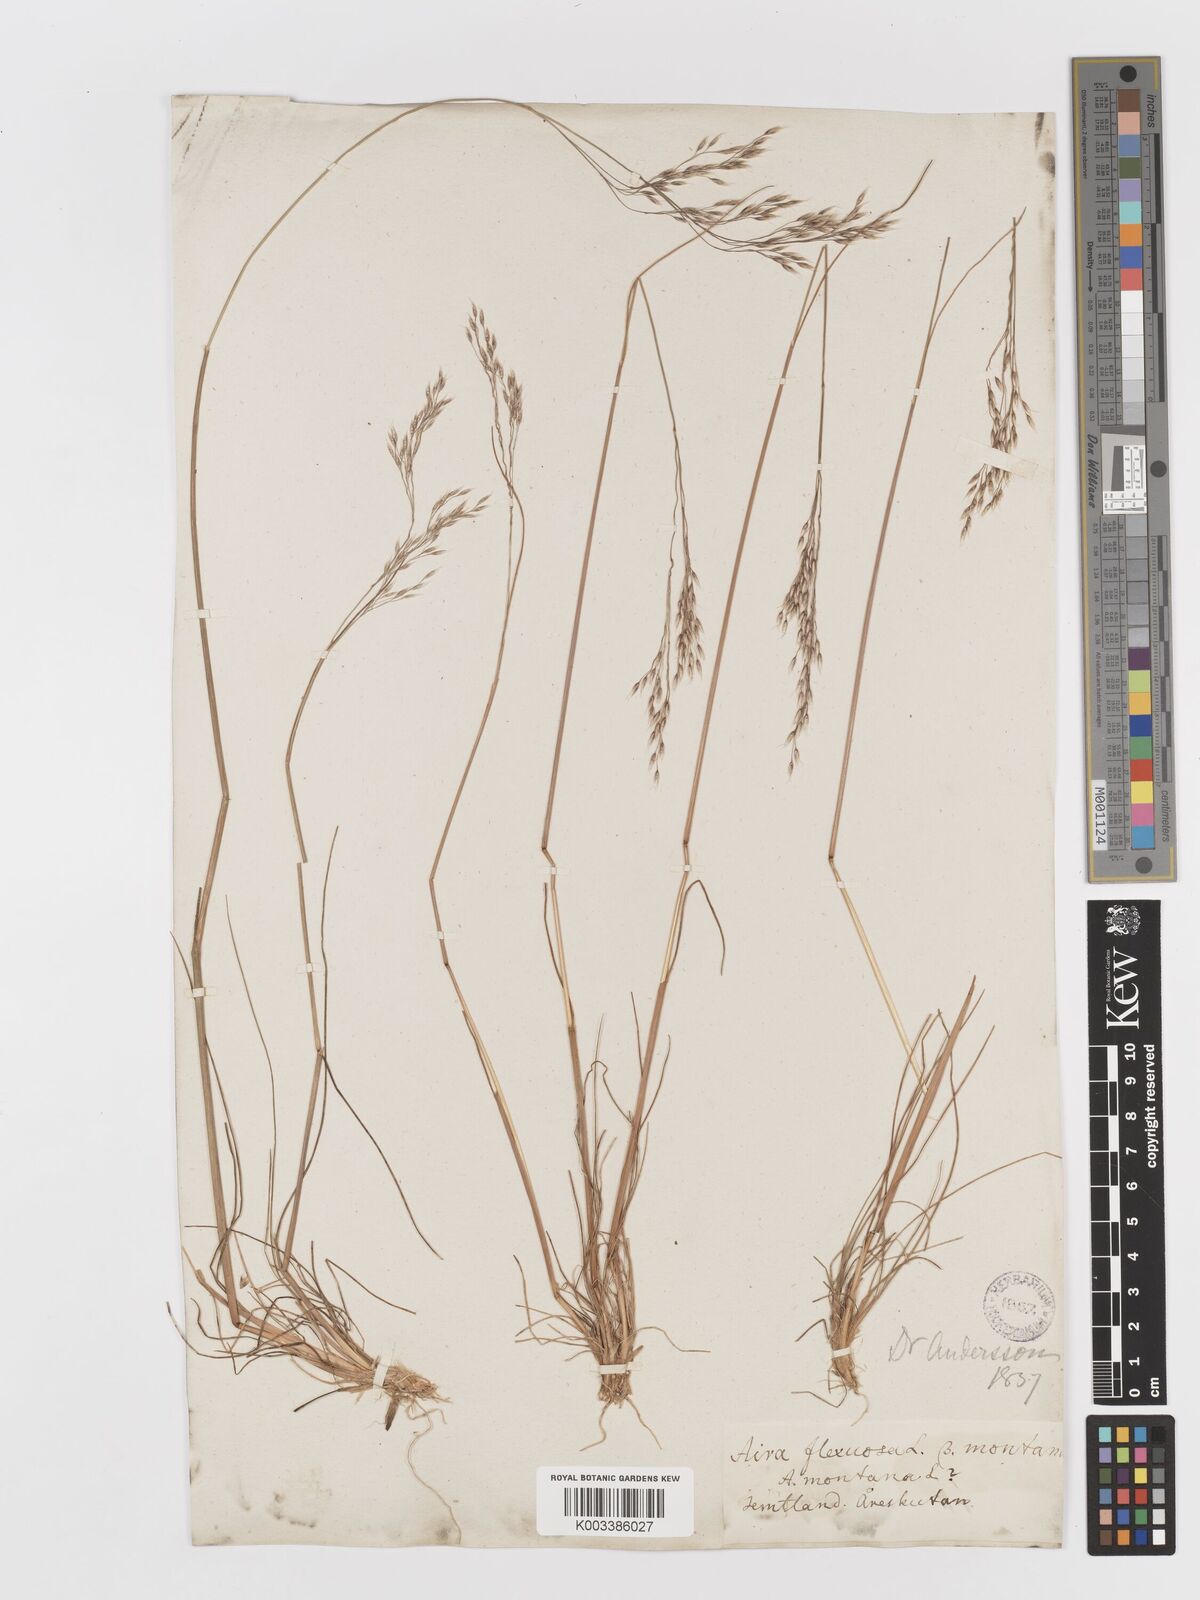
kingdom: Plantae
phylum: Tracheophyta
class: Liliopsida
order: Poales
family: Poaceae
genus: Avenella
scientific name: Avenella flexuosa
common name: Wavy hairgrass
